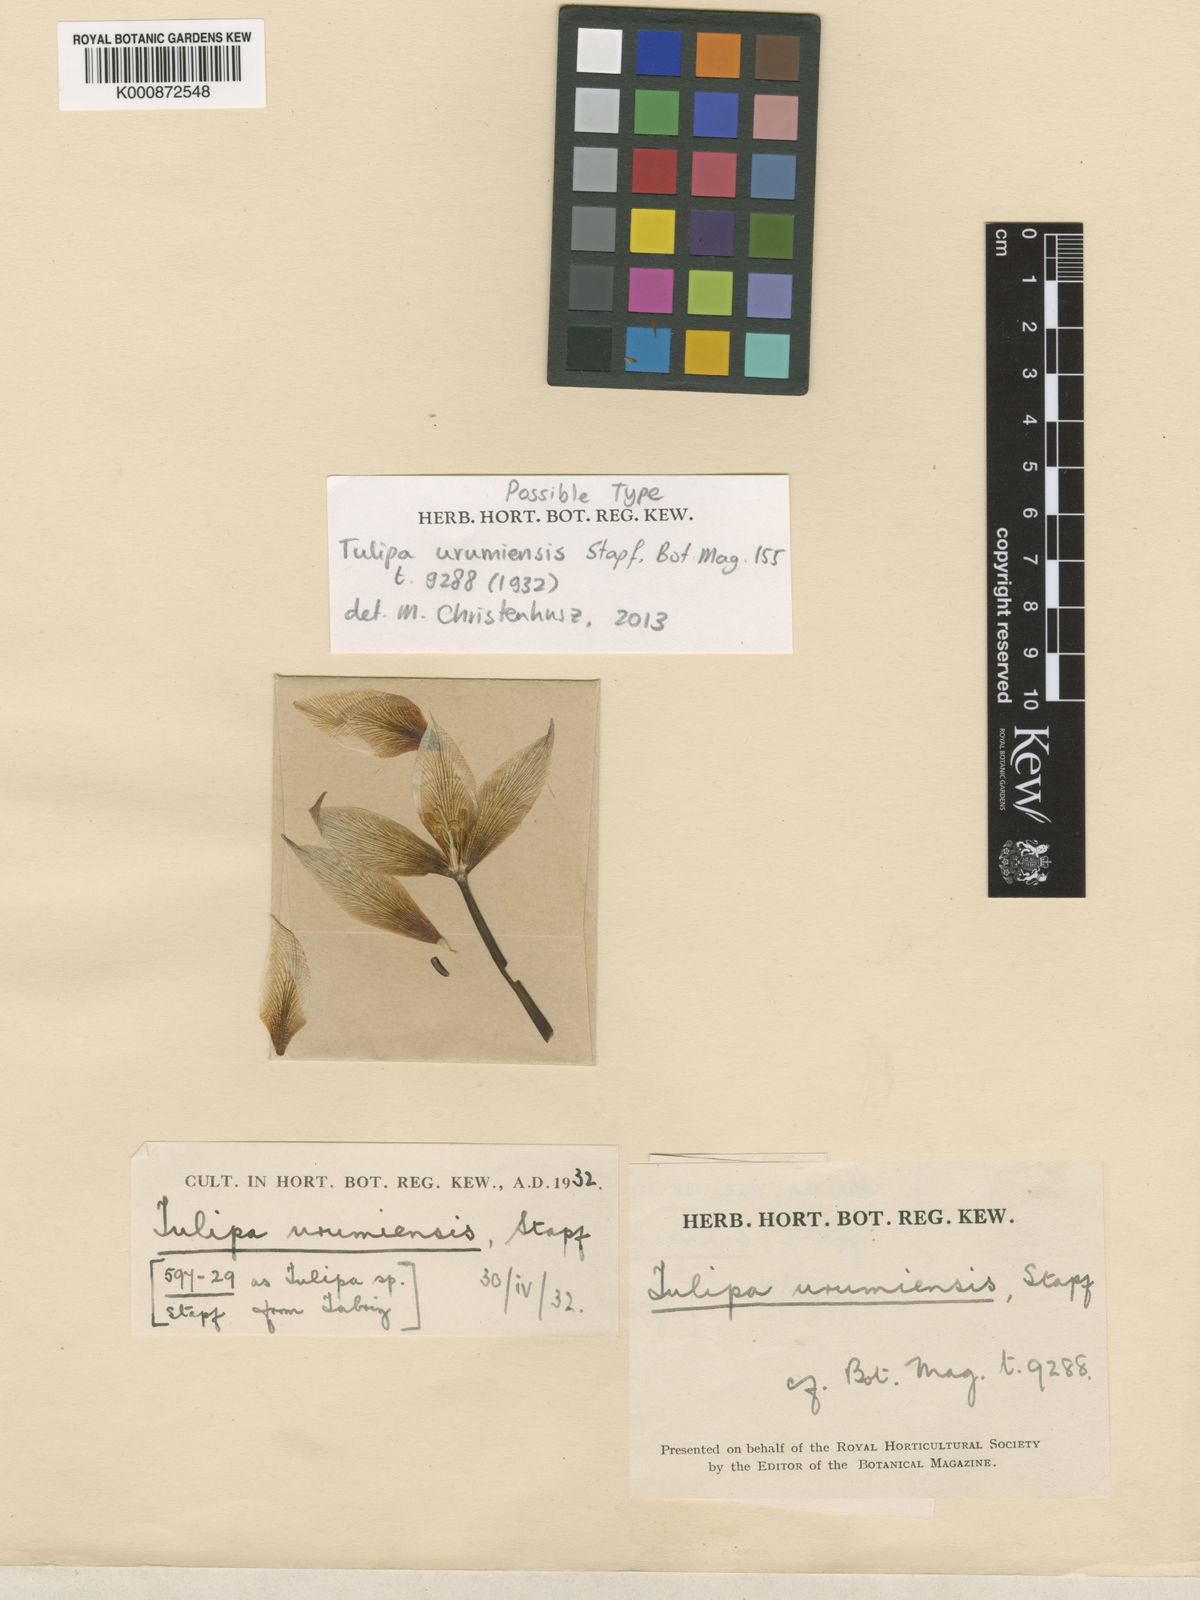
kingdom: Plantae
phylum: Tracheophyta
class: Liliopsida
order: Liliales
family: Liliaceae
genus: Tulipa
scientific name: Tulipa urumiensis
